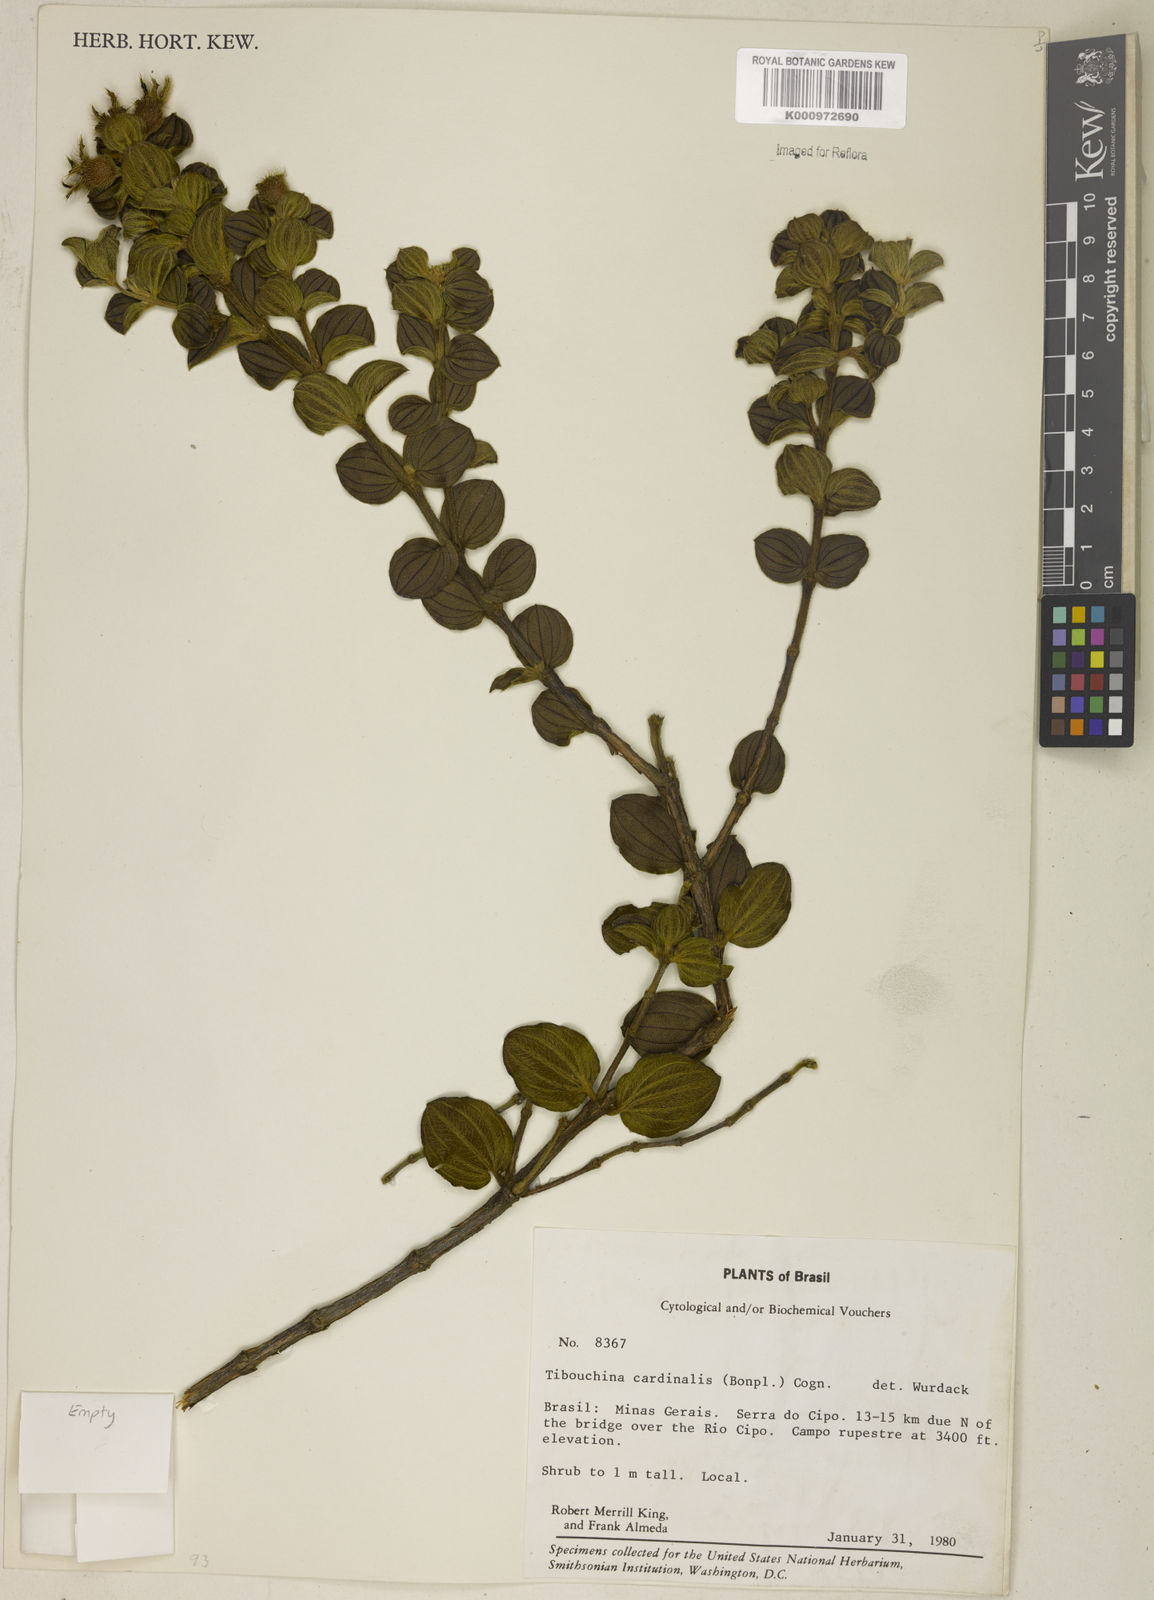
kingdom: Plantae
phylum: Tracheophyta
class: Magnoliopsida
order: Myrtales
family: Melastomataceae
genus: Chaetogastra
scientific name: Chaetogastra cardinalis
